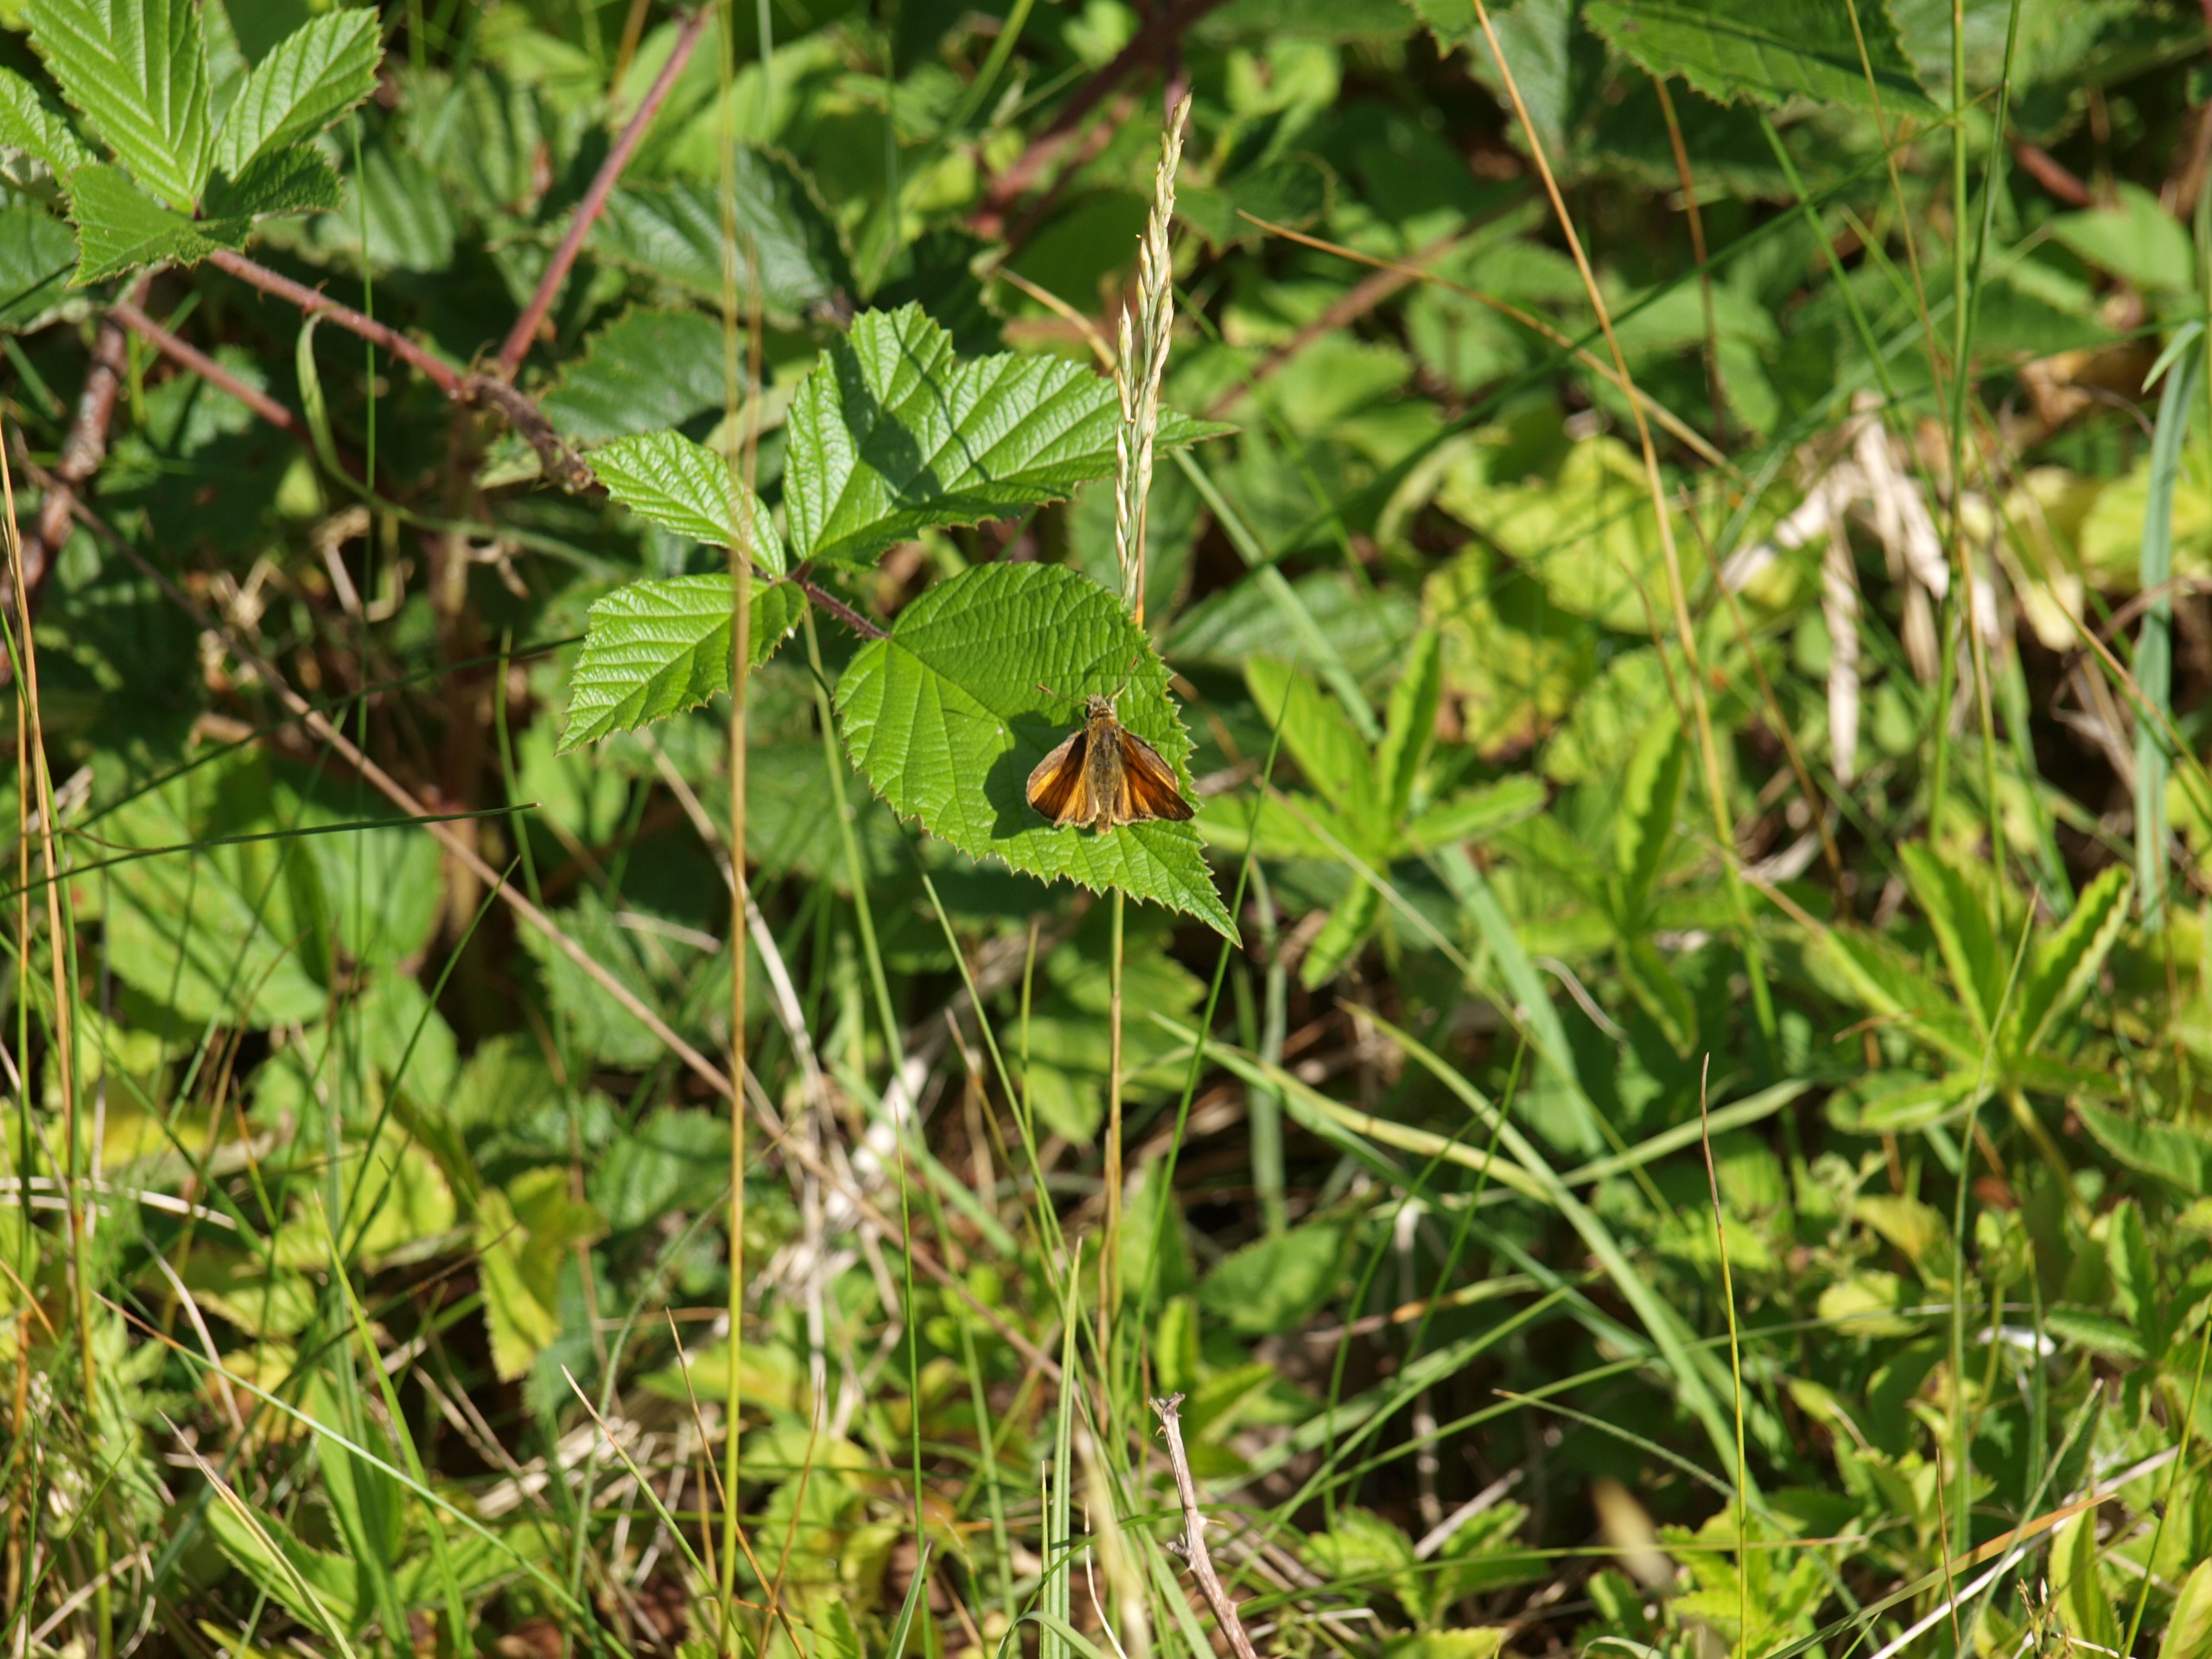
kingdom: Animalia
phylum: Arthropoda
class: Insecta
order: Lepidoptera
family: Hesperiidae
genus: Ochlodes
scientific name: Ochlodes venata
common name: Stor bredpande
